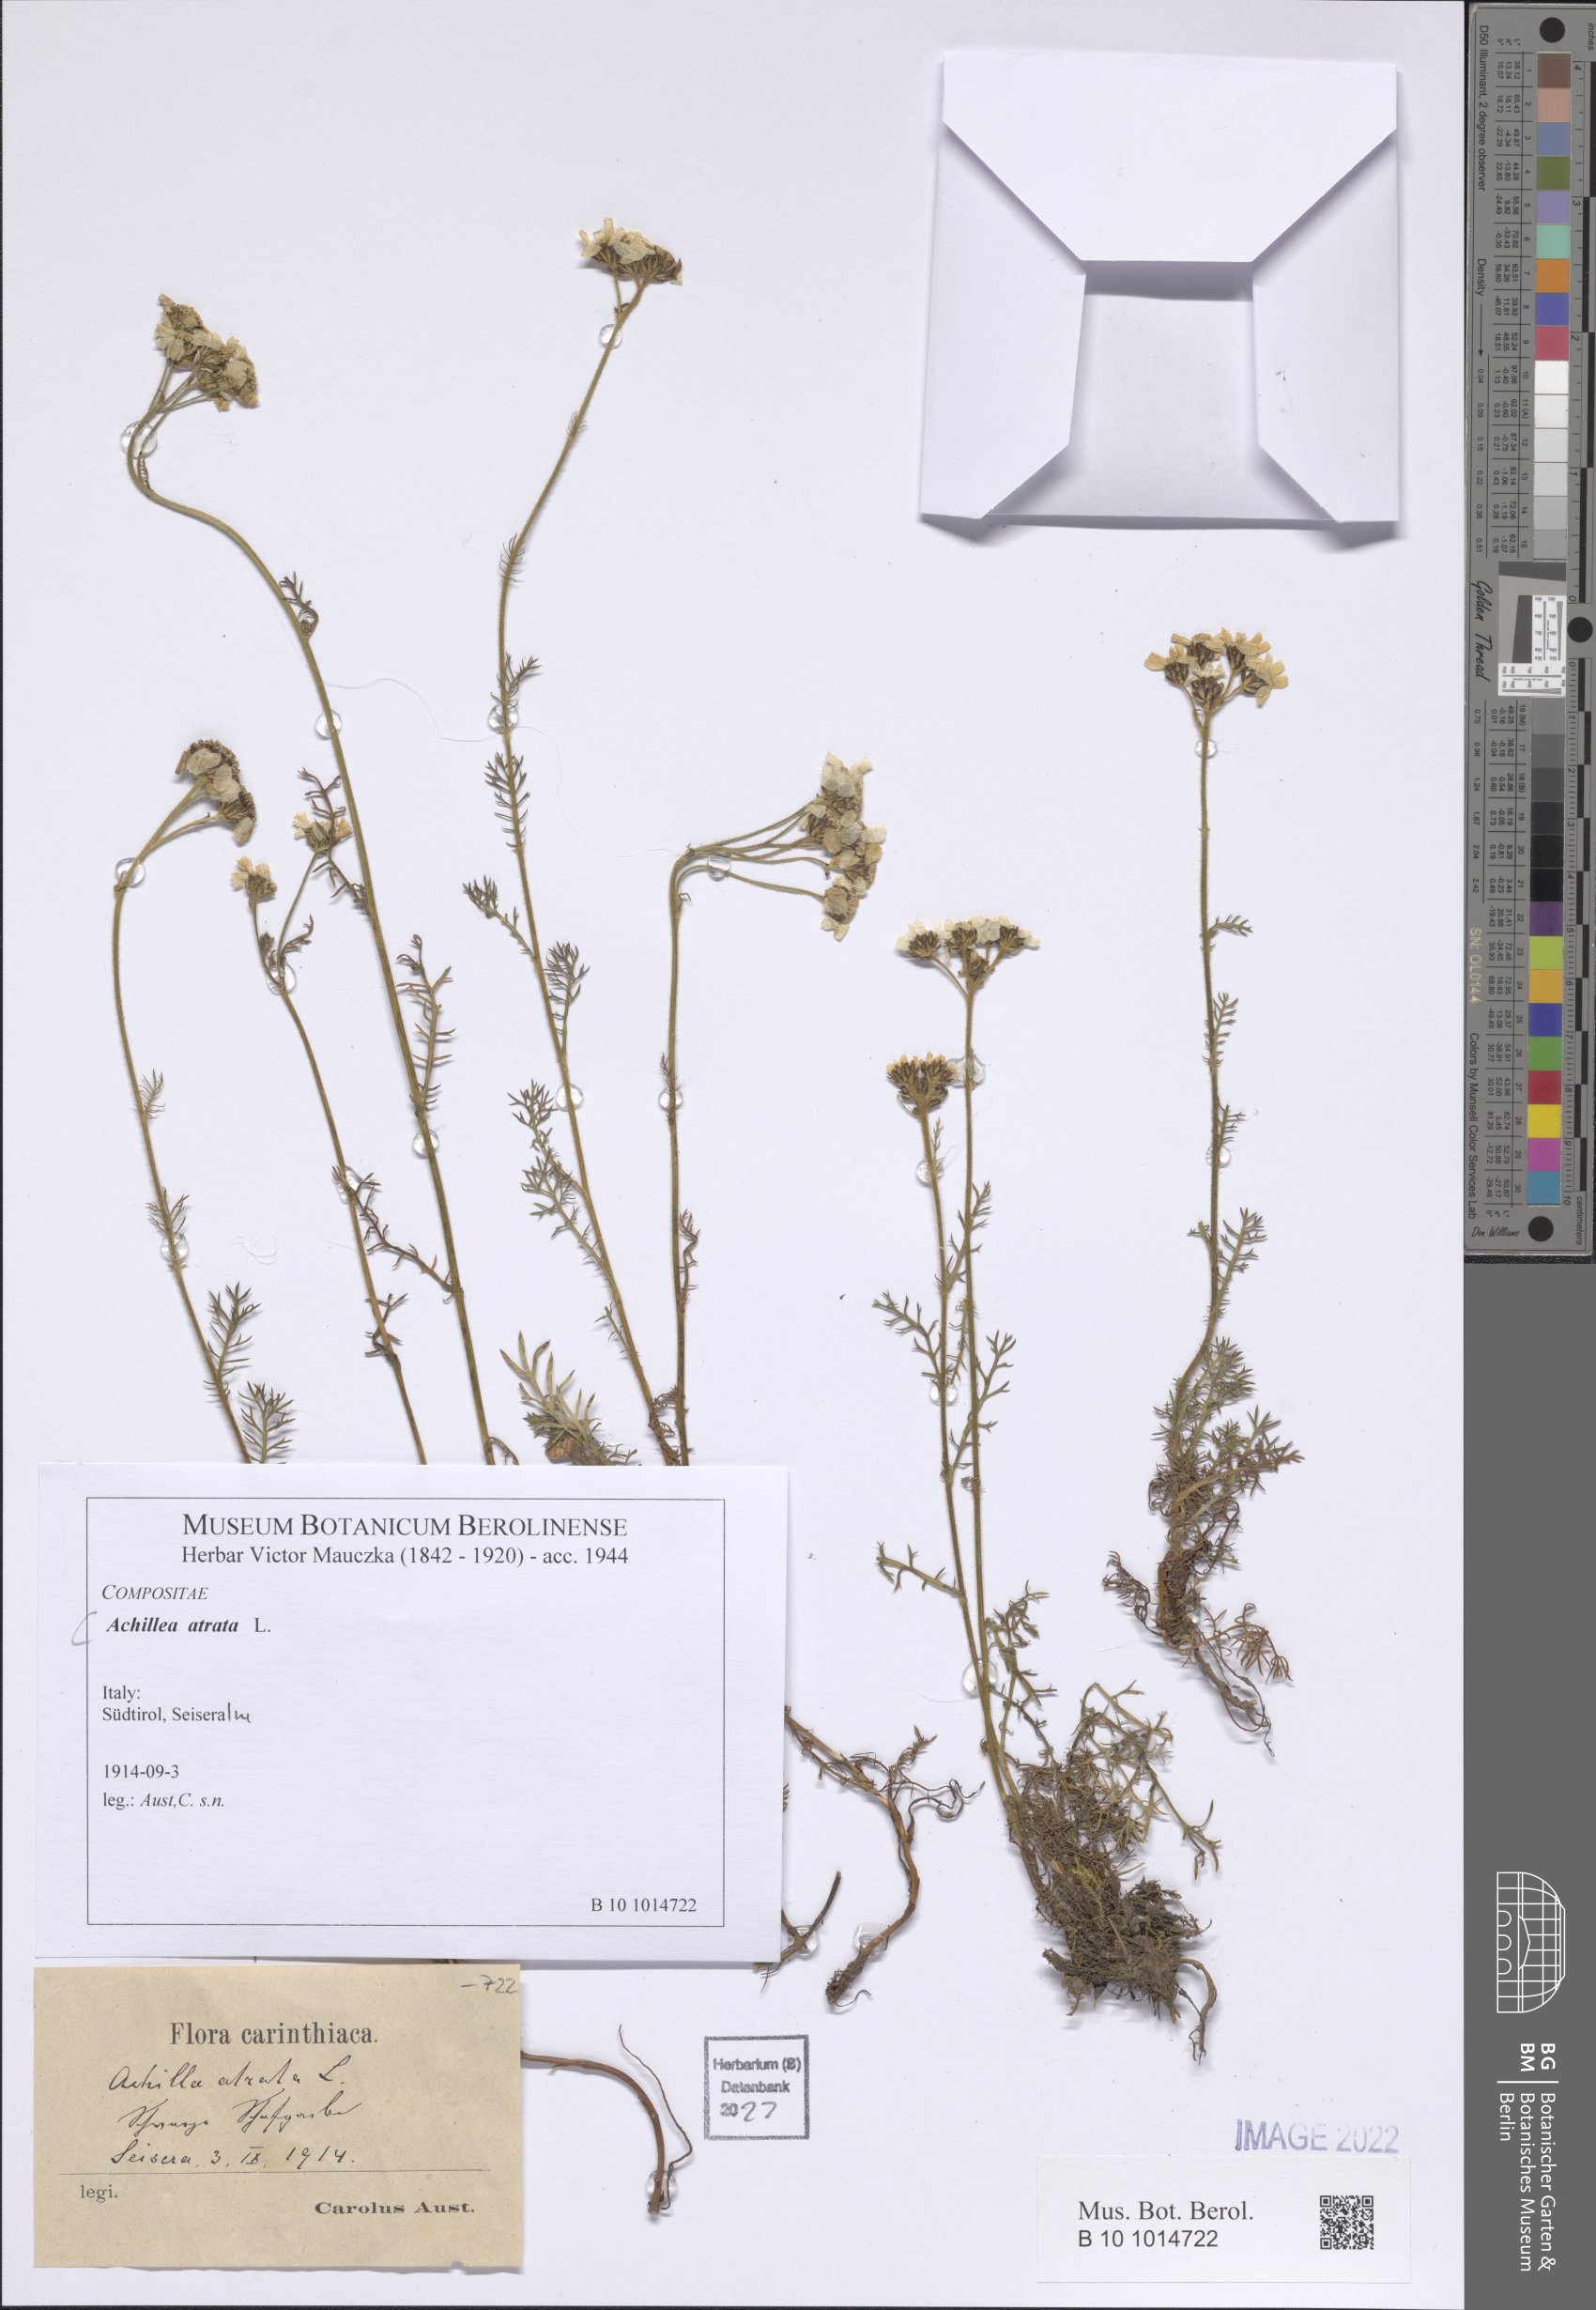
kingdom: Plantae
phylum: Tracheophyta
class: Magnoliopsida
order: Asterales
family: Asteraceae
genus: Achillea
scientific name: Achillea atrata
